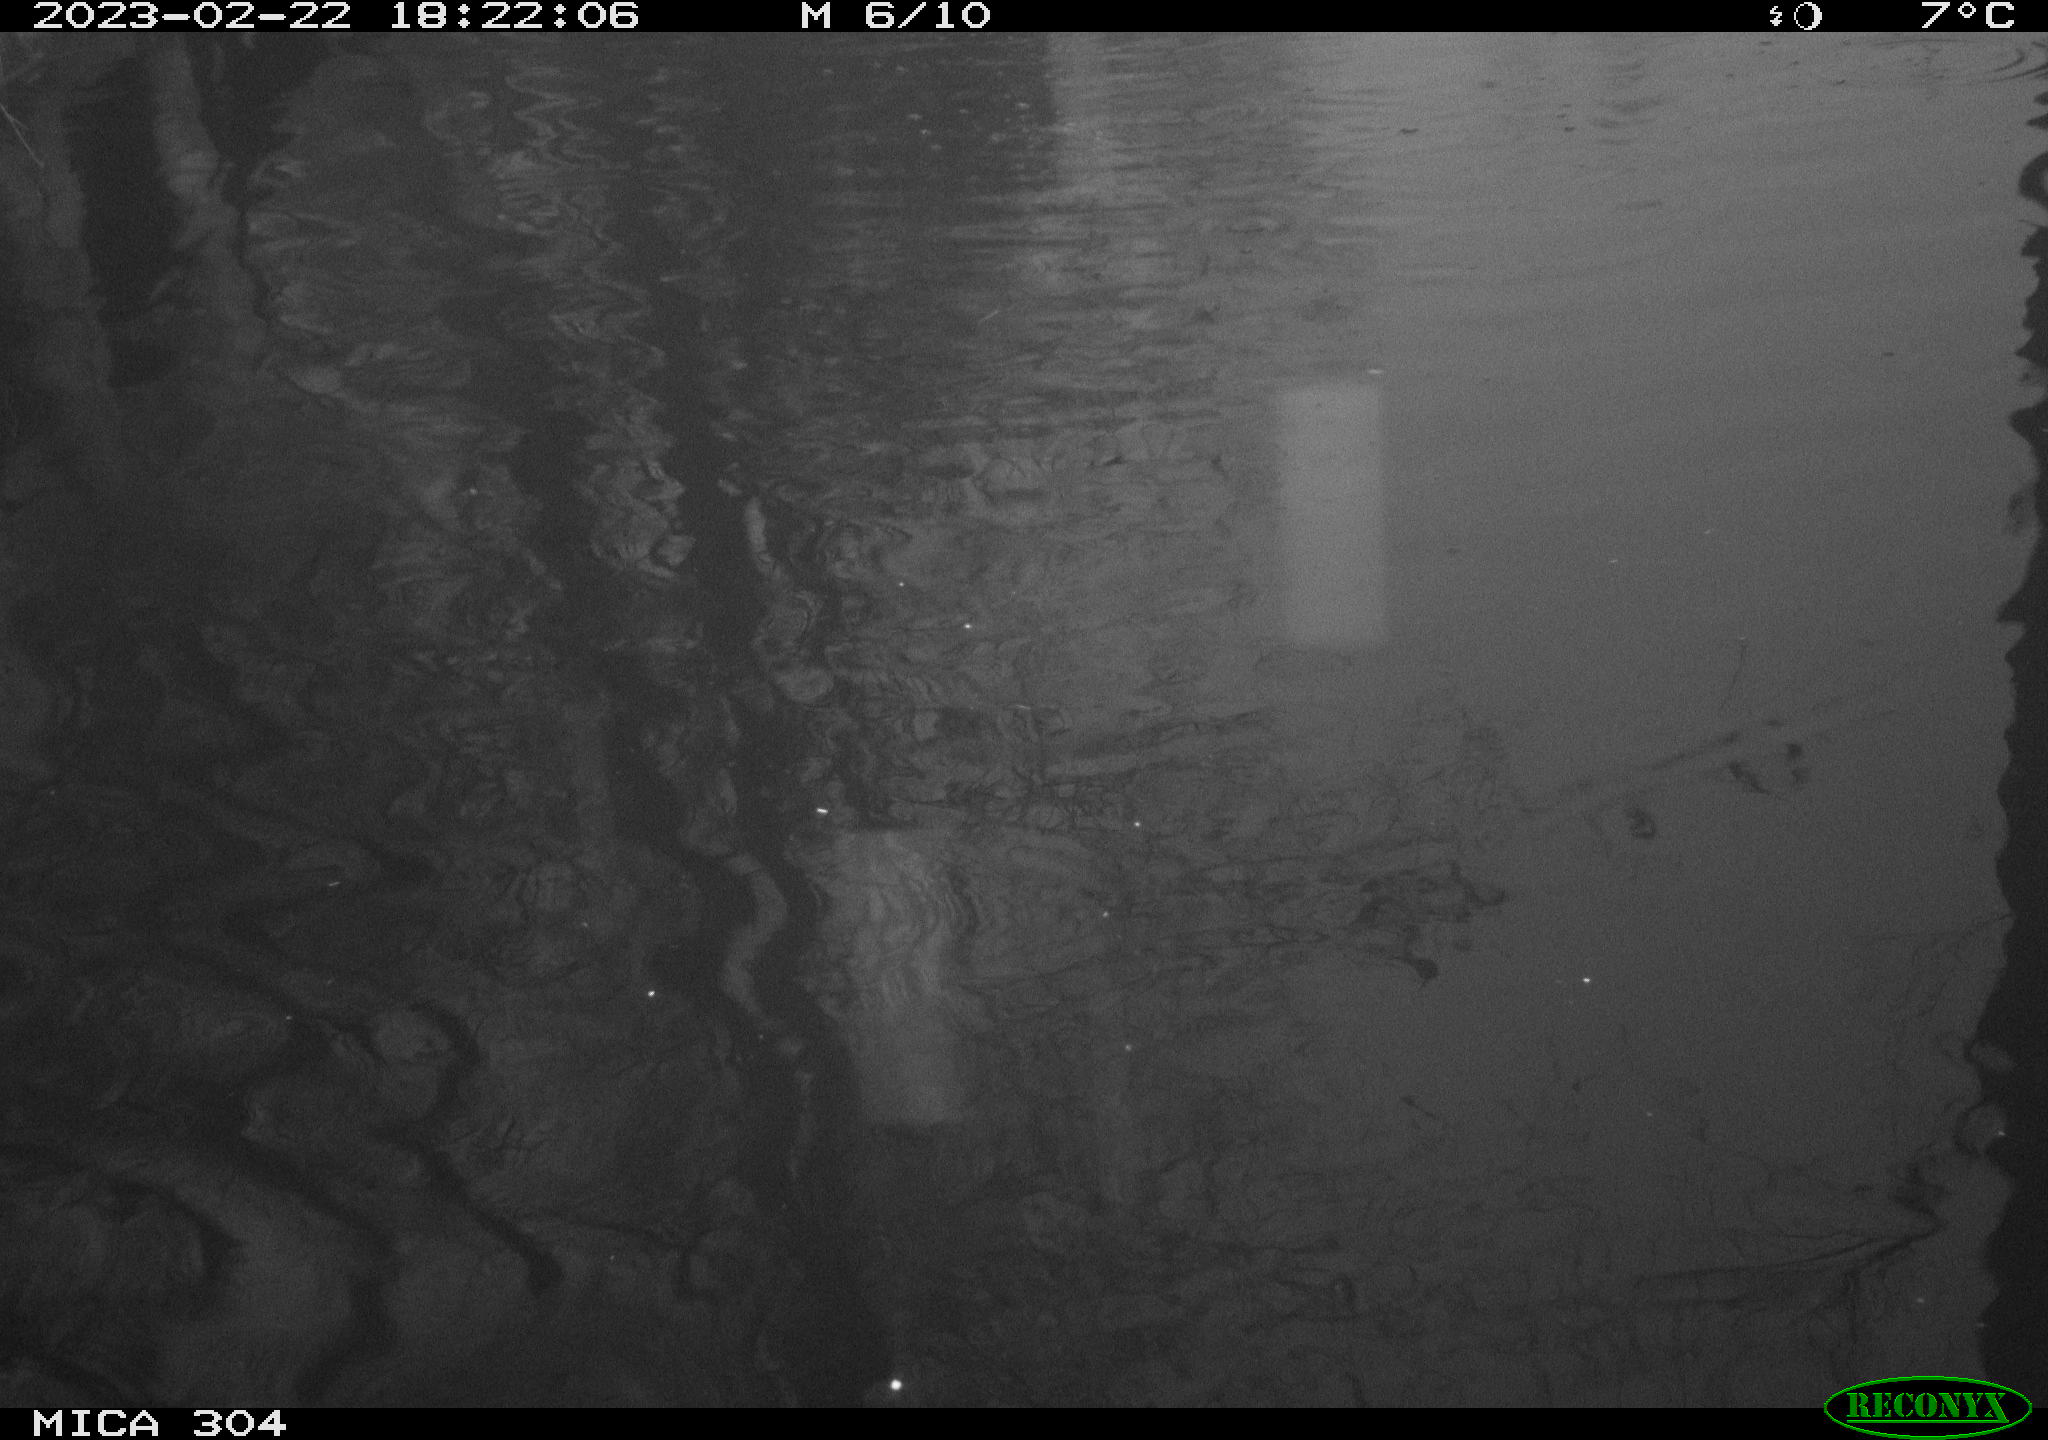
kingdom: Animalia
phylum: Chordata
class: Aves
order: Gruiformes
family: Rallidae
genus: Gallinula
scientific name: Gallinula chloropus
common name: Common moorhen
